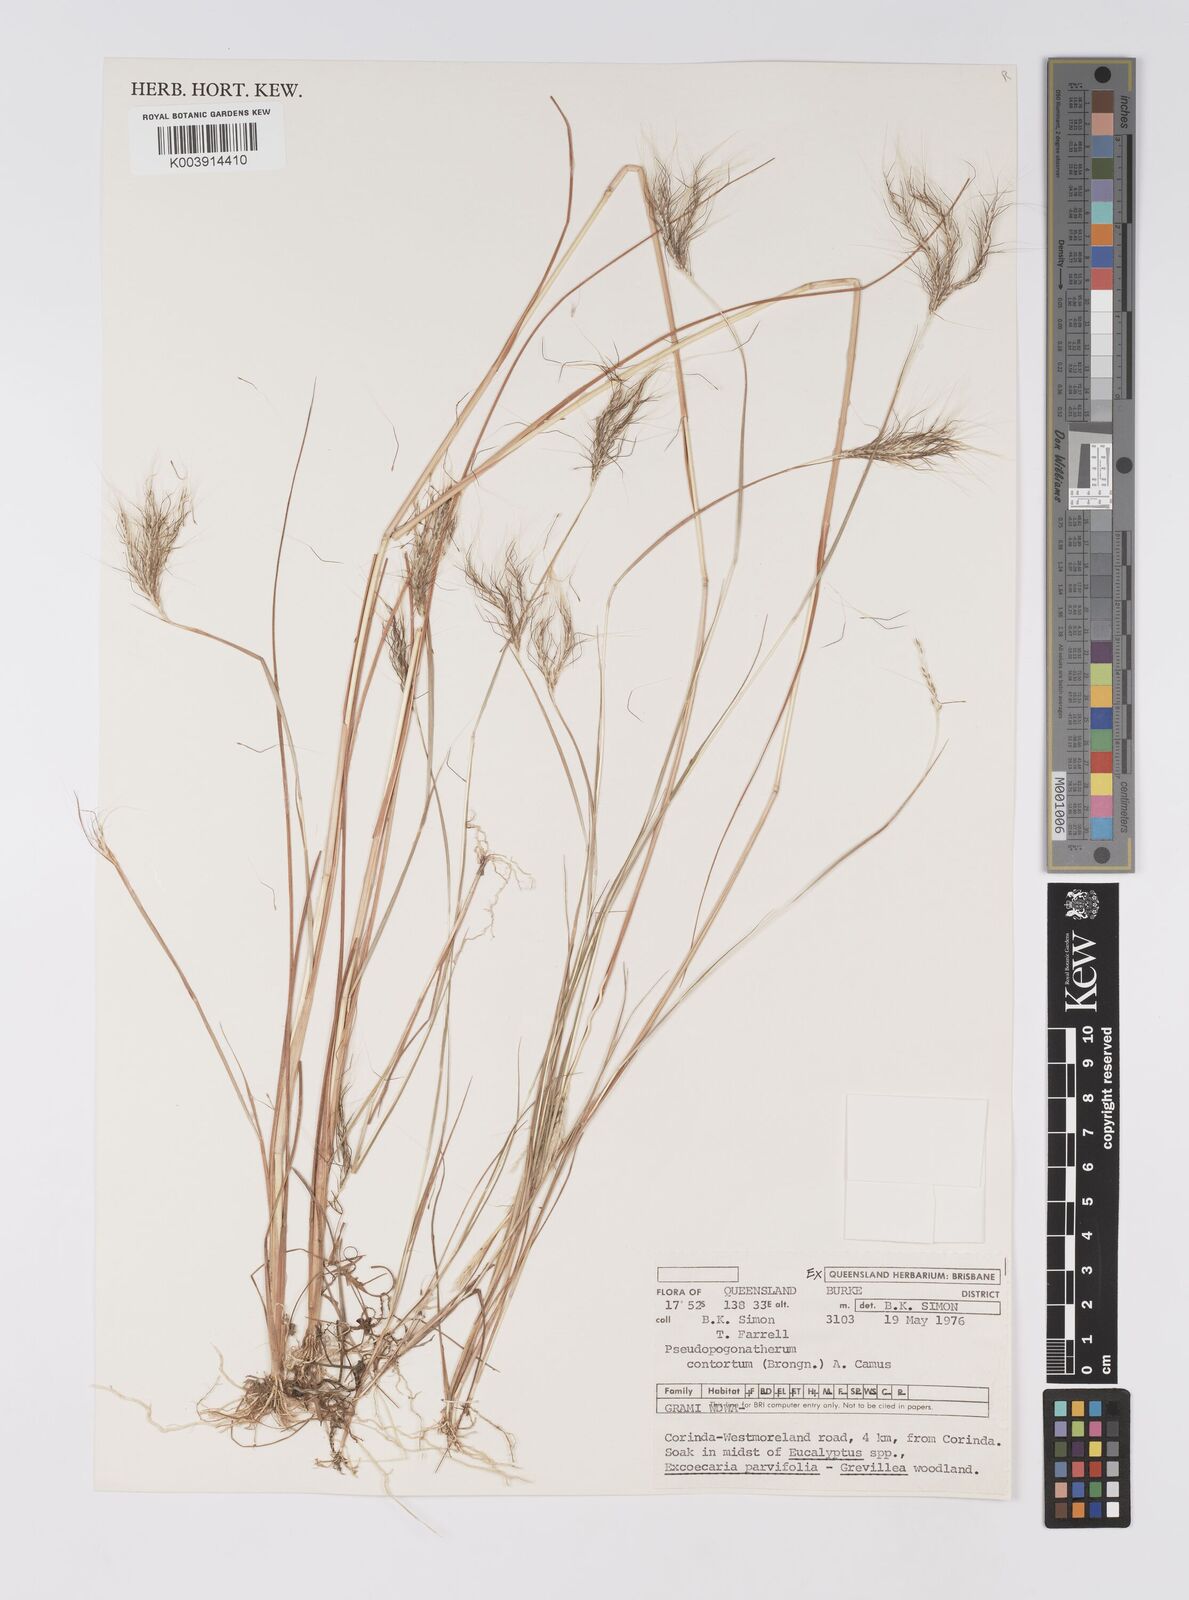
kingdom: Plantae
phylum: Tracheophyta
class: Liliopsida
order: Poales
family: Poaceae
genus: Pseudopogonatherum
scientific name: Pseudopogonatherum contortum
